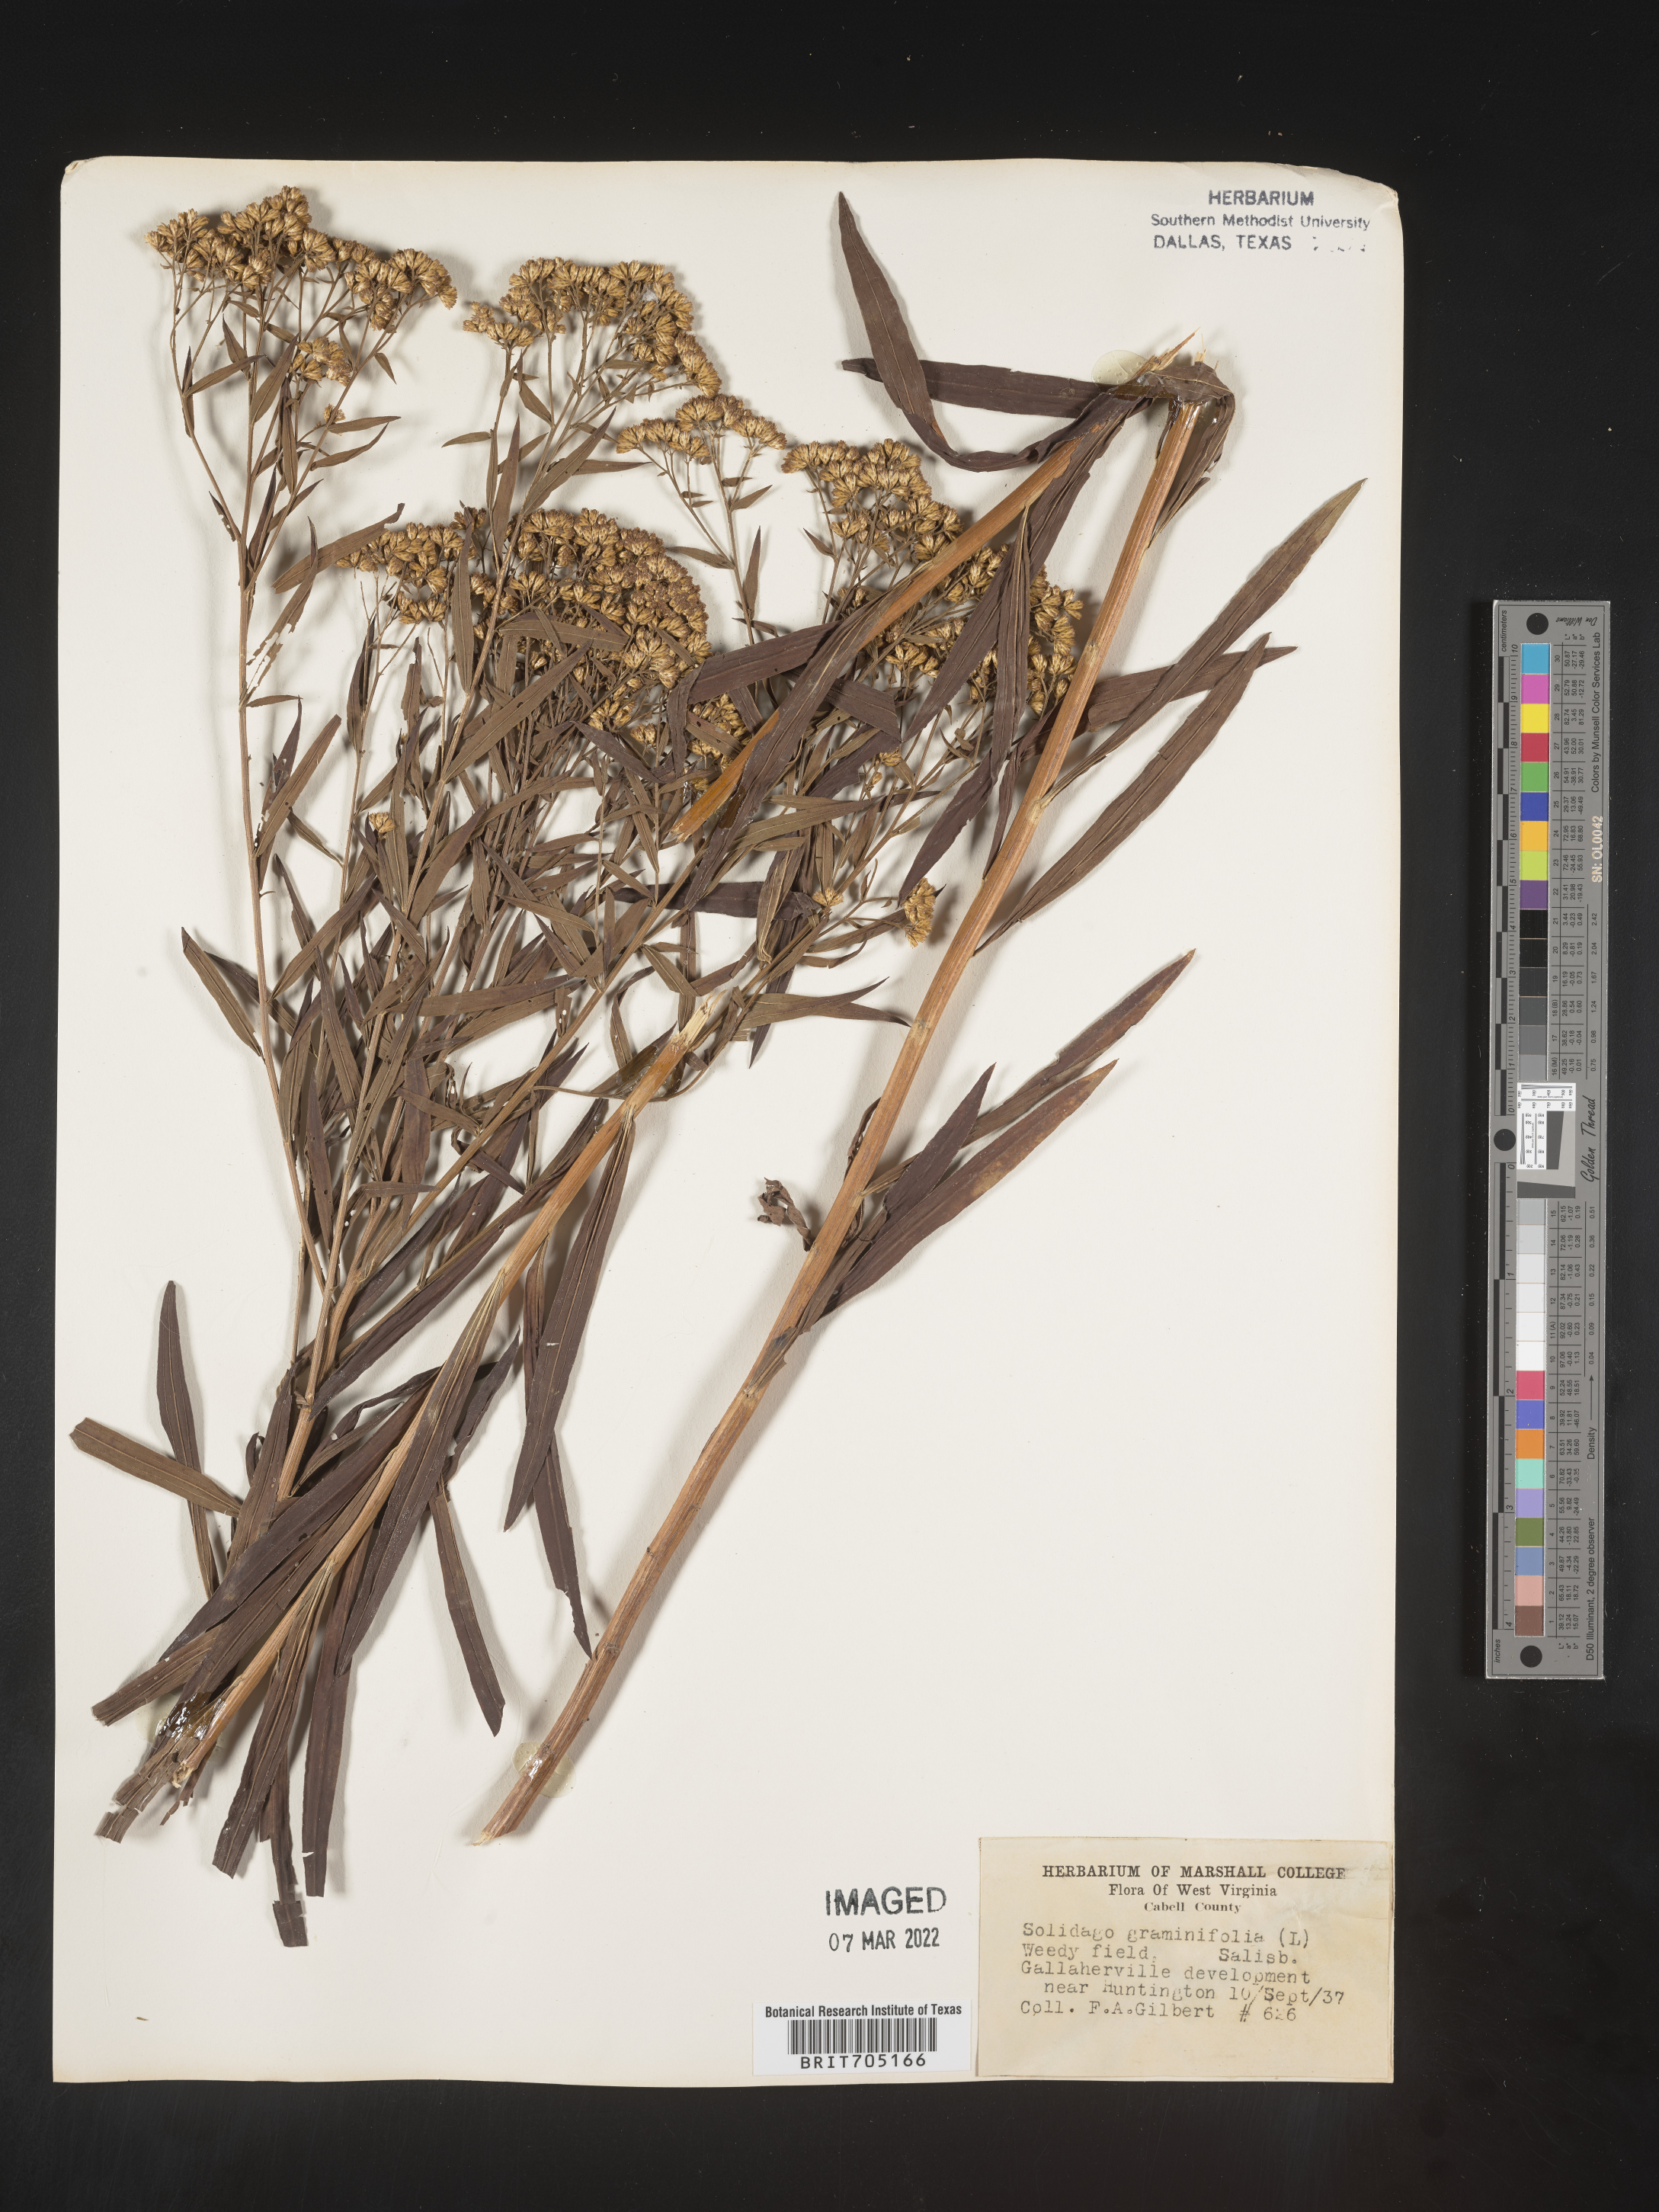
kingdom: Plantae
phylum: Tracheophyta
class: Magnoliopsida
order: Asterales
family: Asteraceae
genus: Euthamia
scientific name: Euthamia graminifolia
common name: Common goldentop
